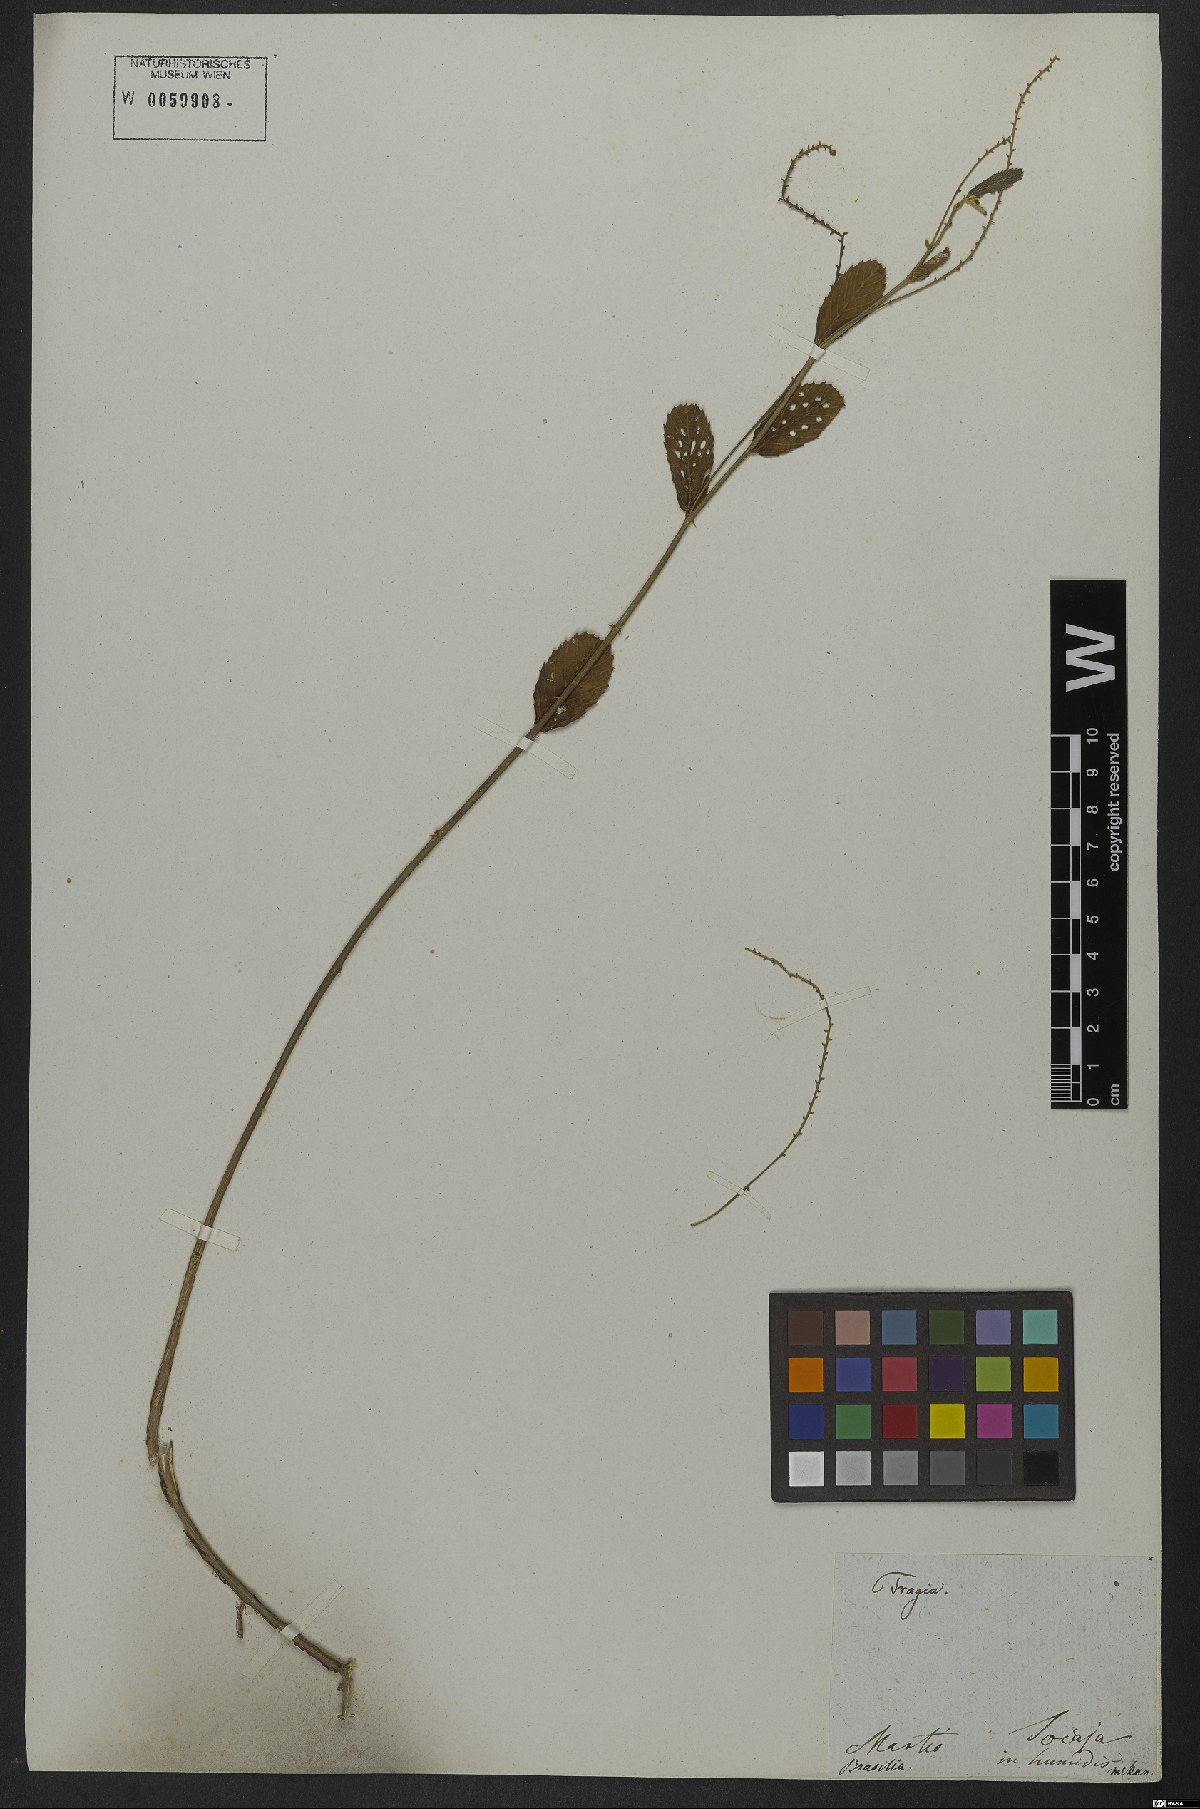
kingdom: Plantae
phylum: Tracheophyta
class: Magnoliopsida
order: Malpighiales
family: Euphorbiaceae
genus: Caperonia
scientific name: Caperonia aculeolata
